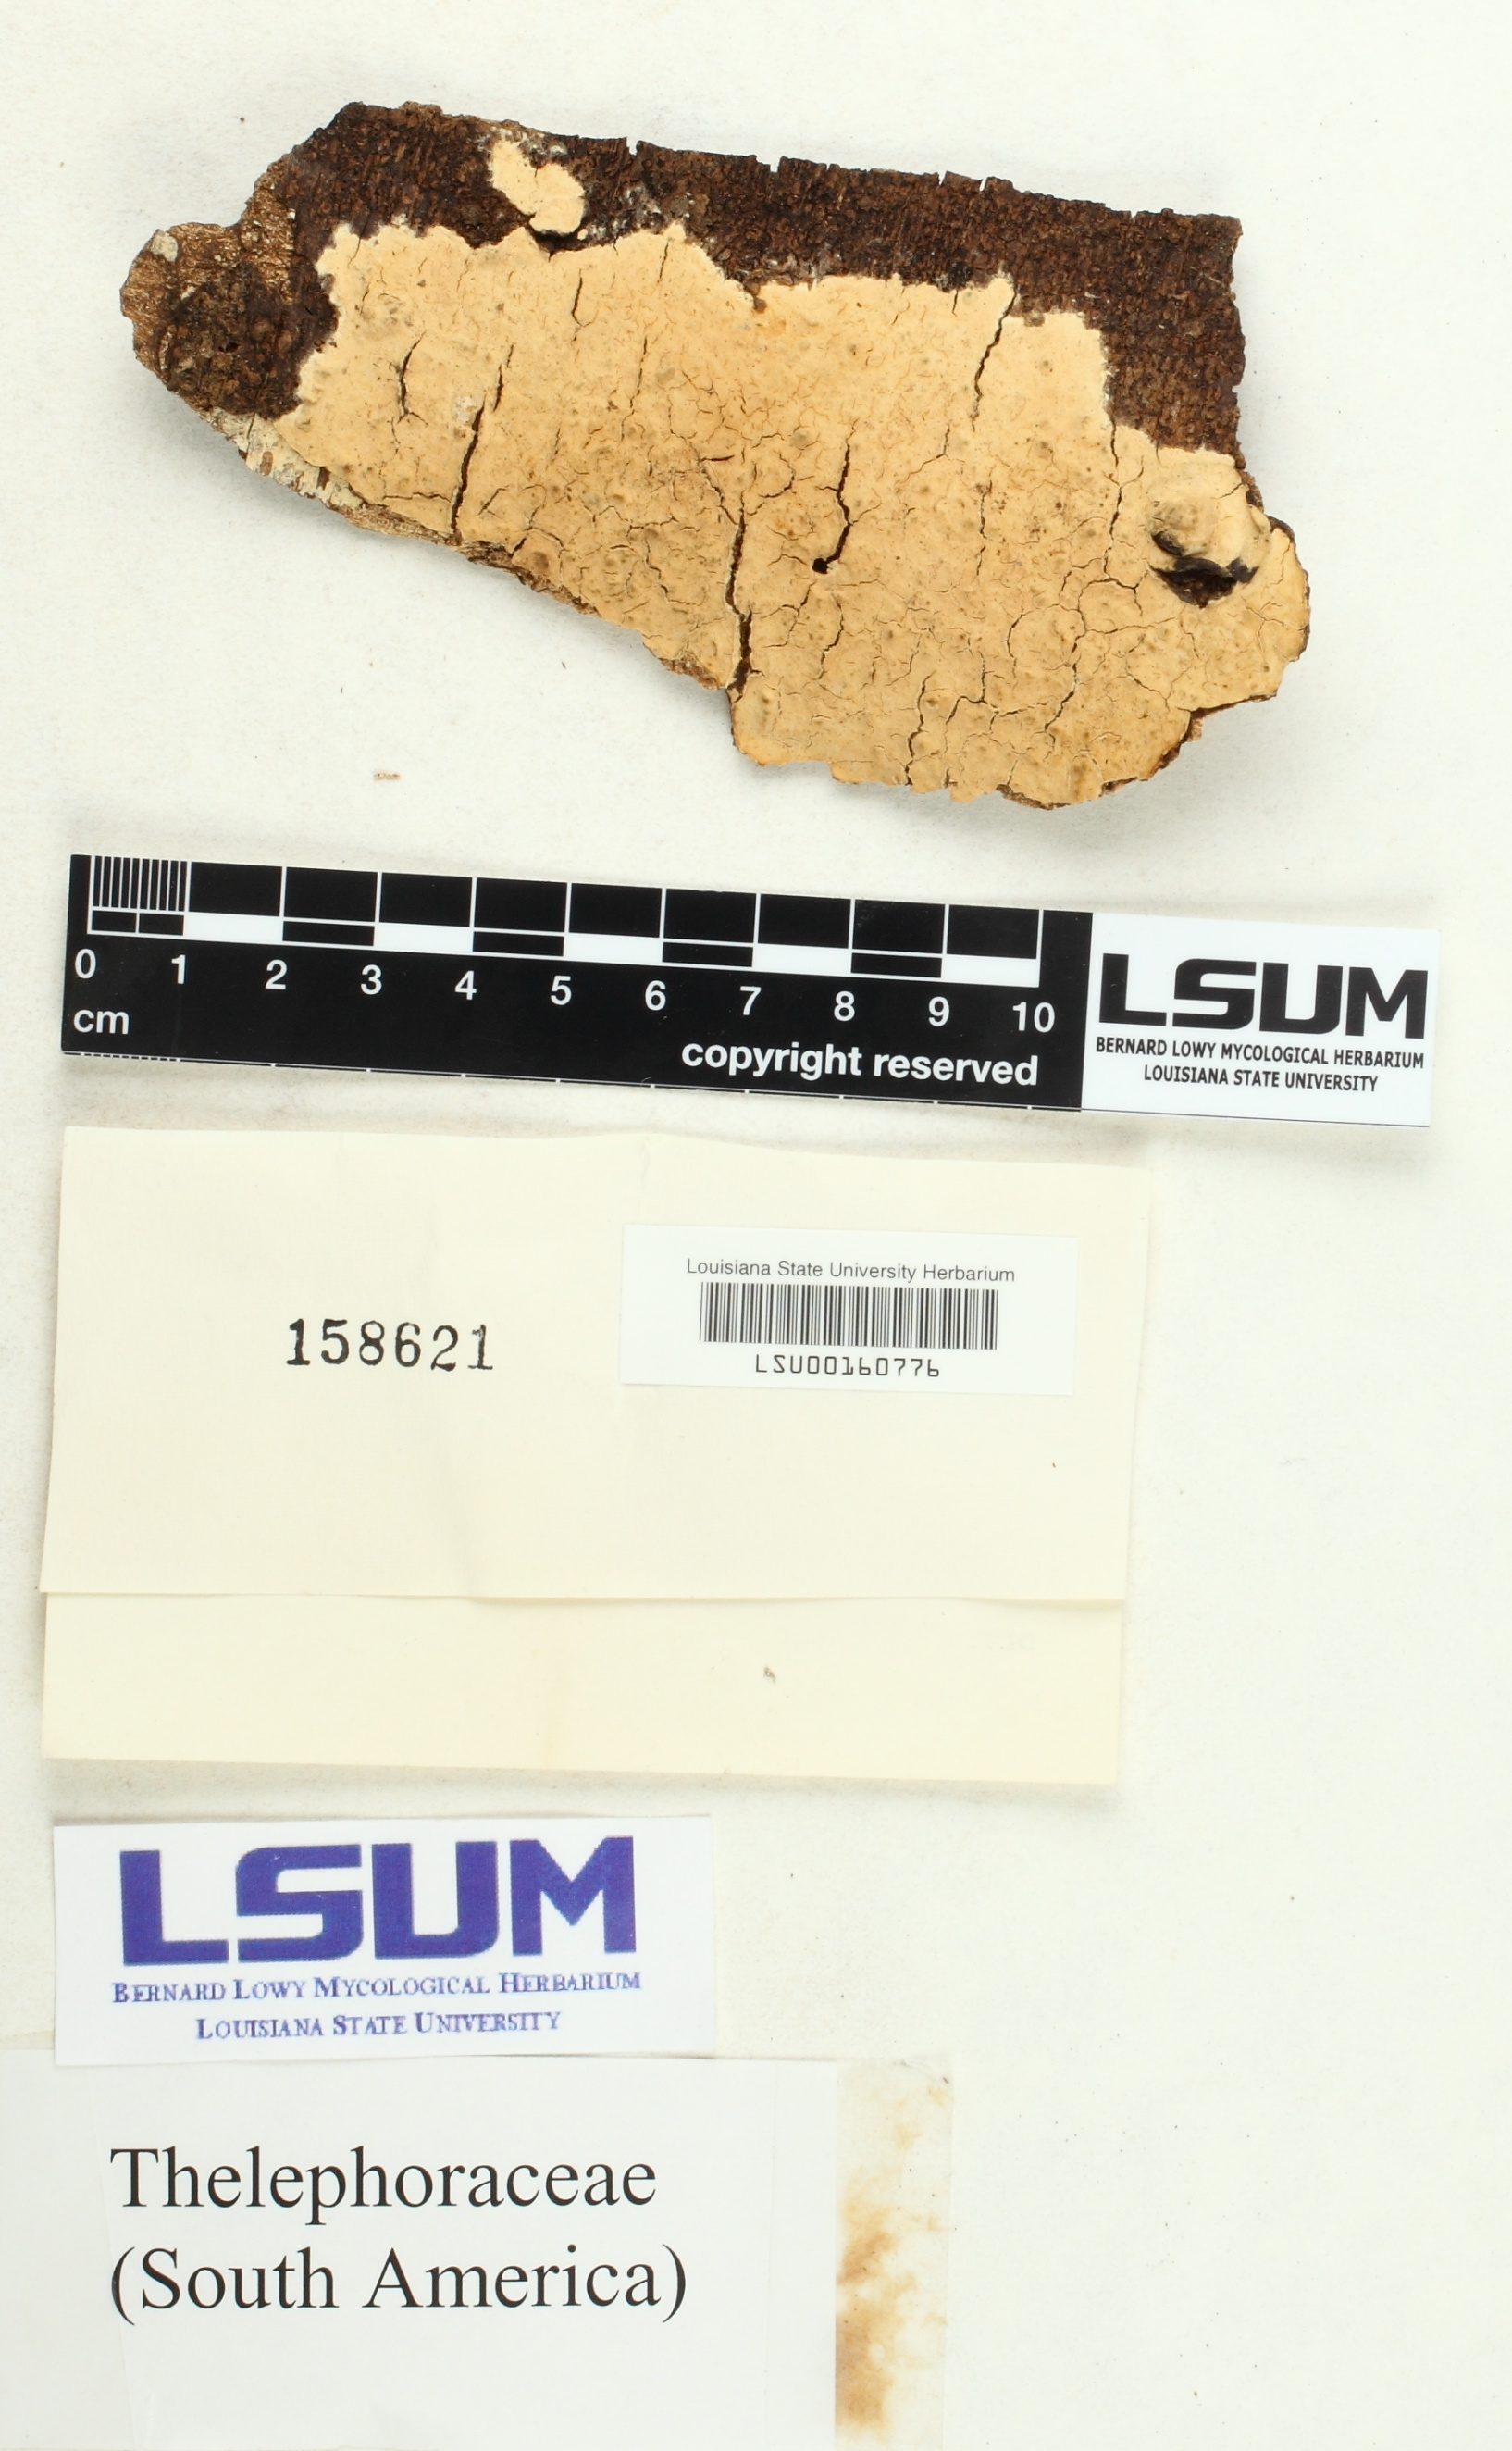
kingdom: Fungi
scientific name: Fungi
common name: Fungi
